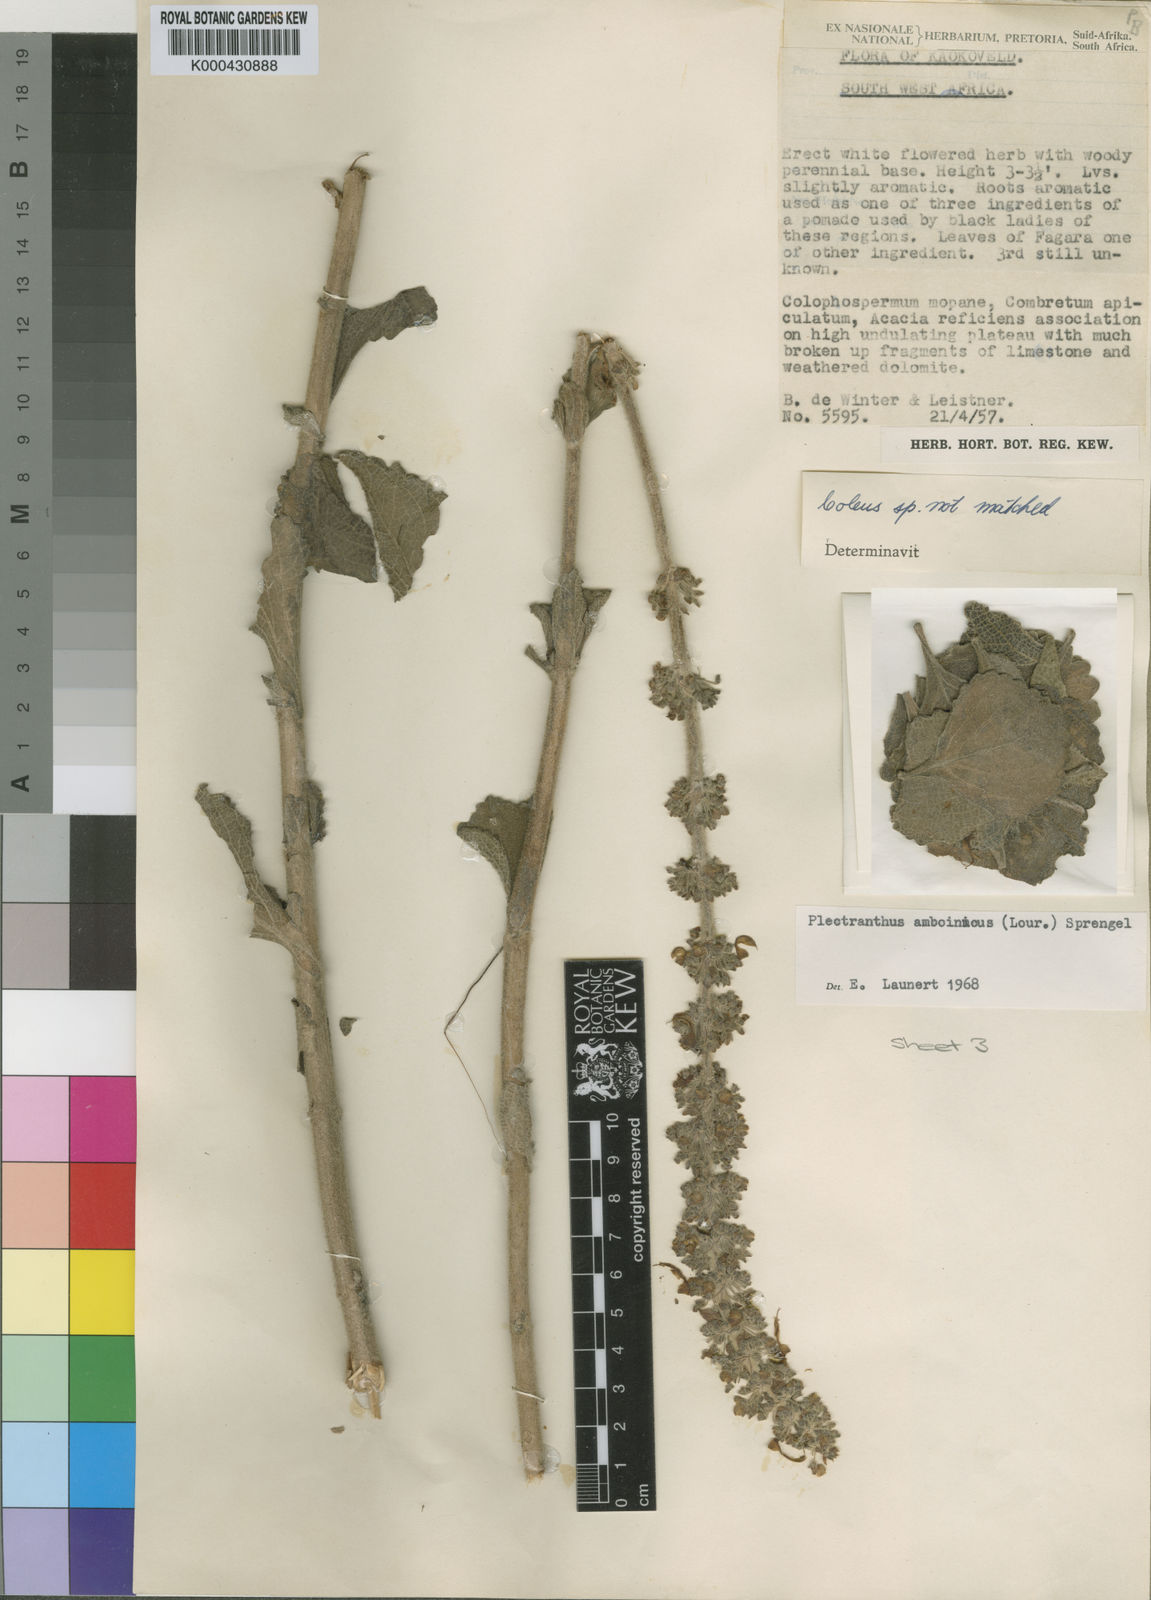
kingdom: Plantae
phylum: Tracheophyta
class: Magnoliopsida
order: Lamiales
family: Lamiaceae
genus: Coleus
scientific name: Coleus unguentarius
